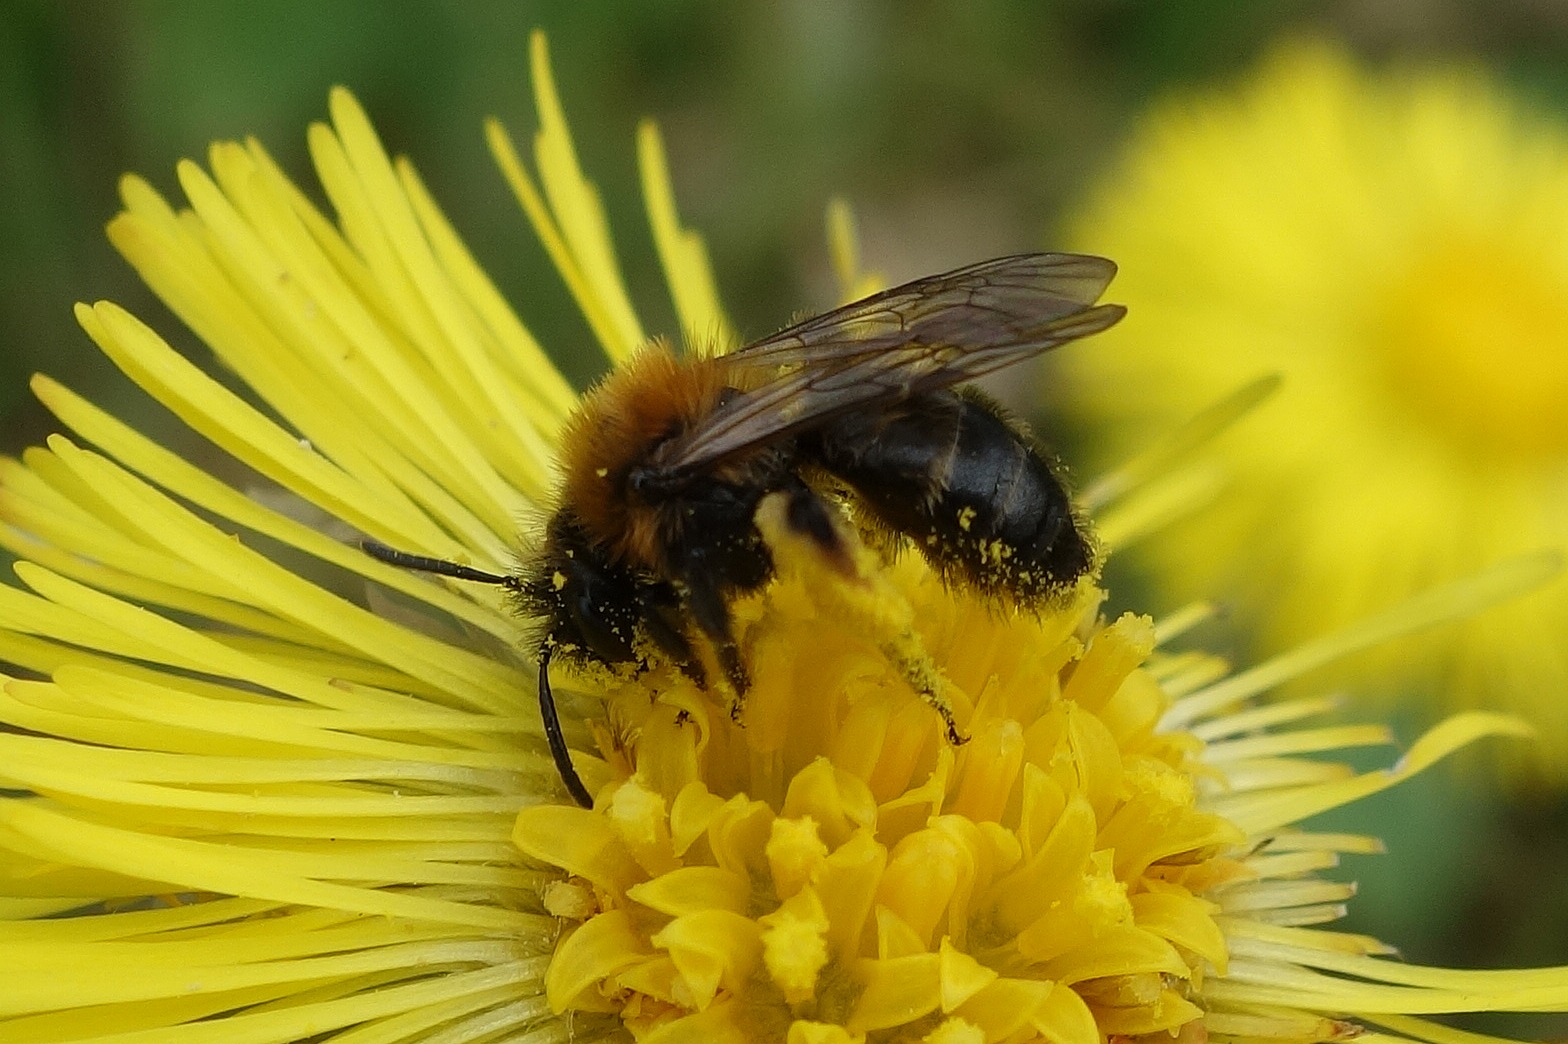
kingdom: Animalia
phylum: Arthropoda
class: Insecta
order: Hymenoptera
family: Andrenidae
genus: Andrena
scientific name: Andrena bicolor
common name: Tofarvet jordbi
